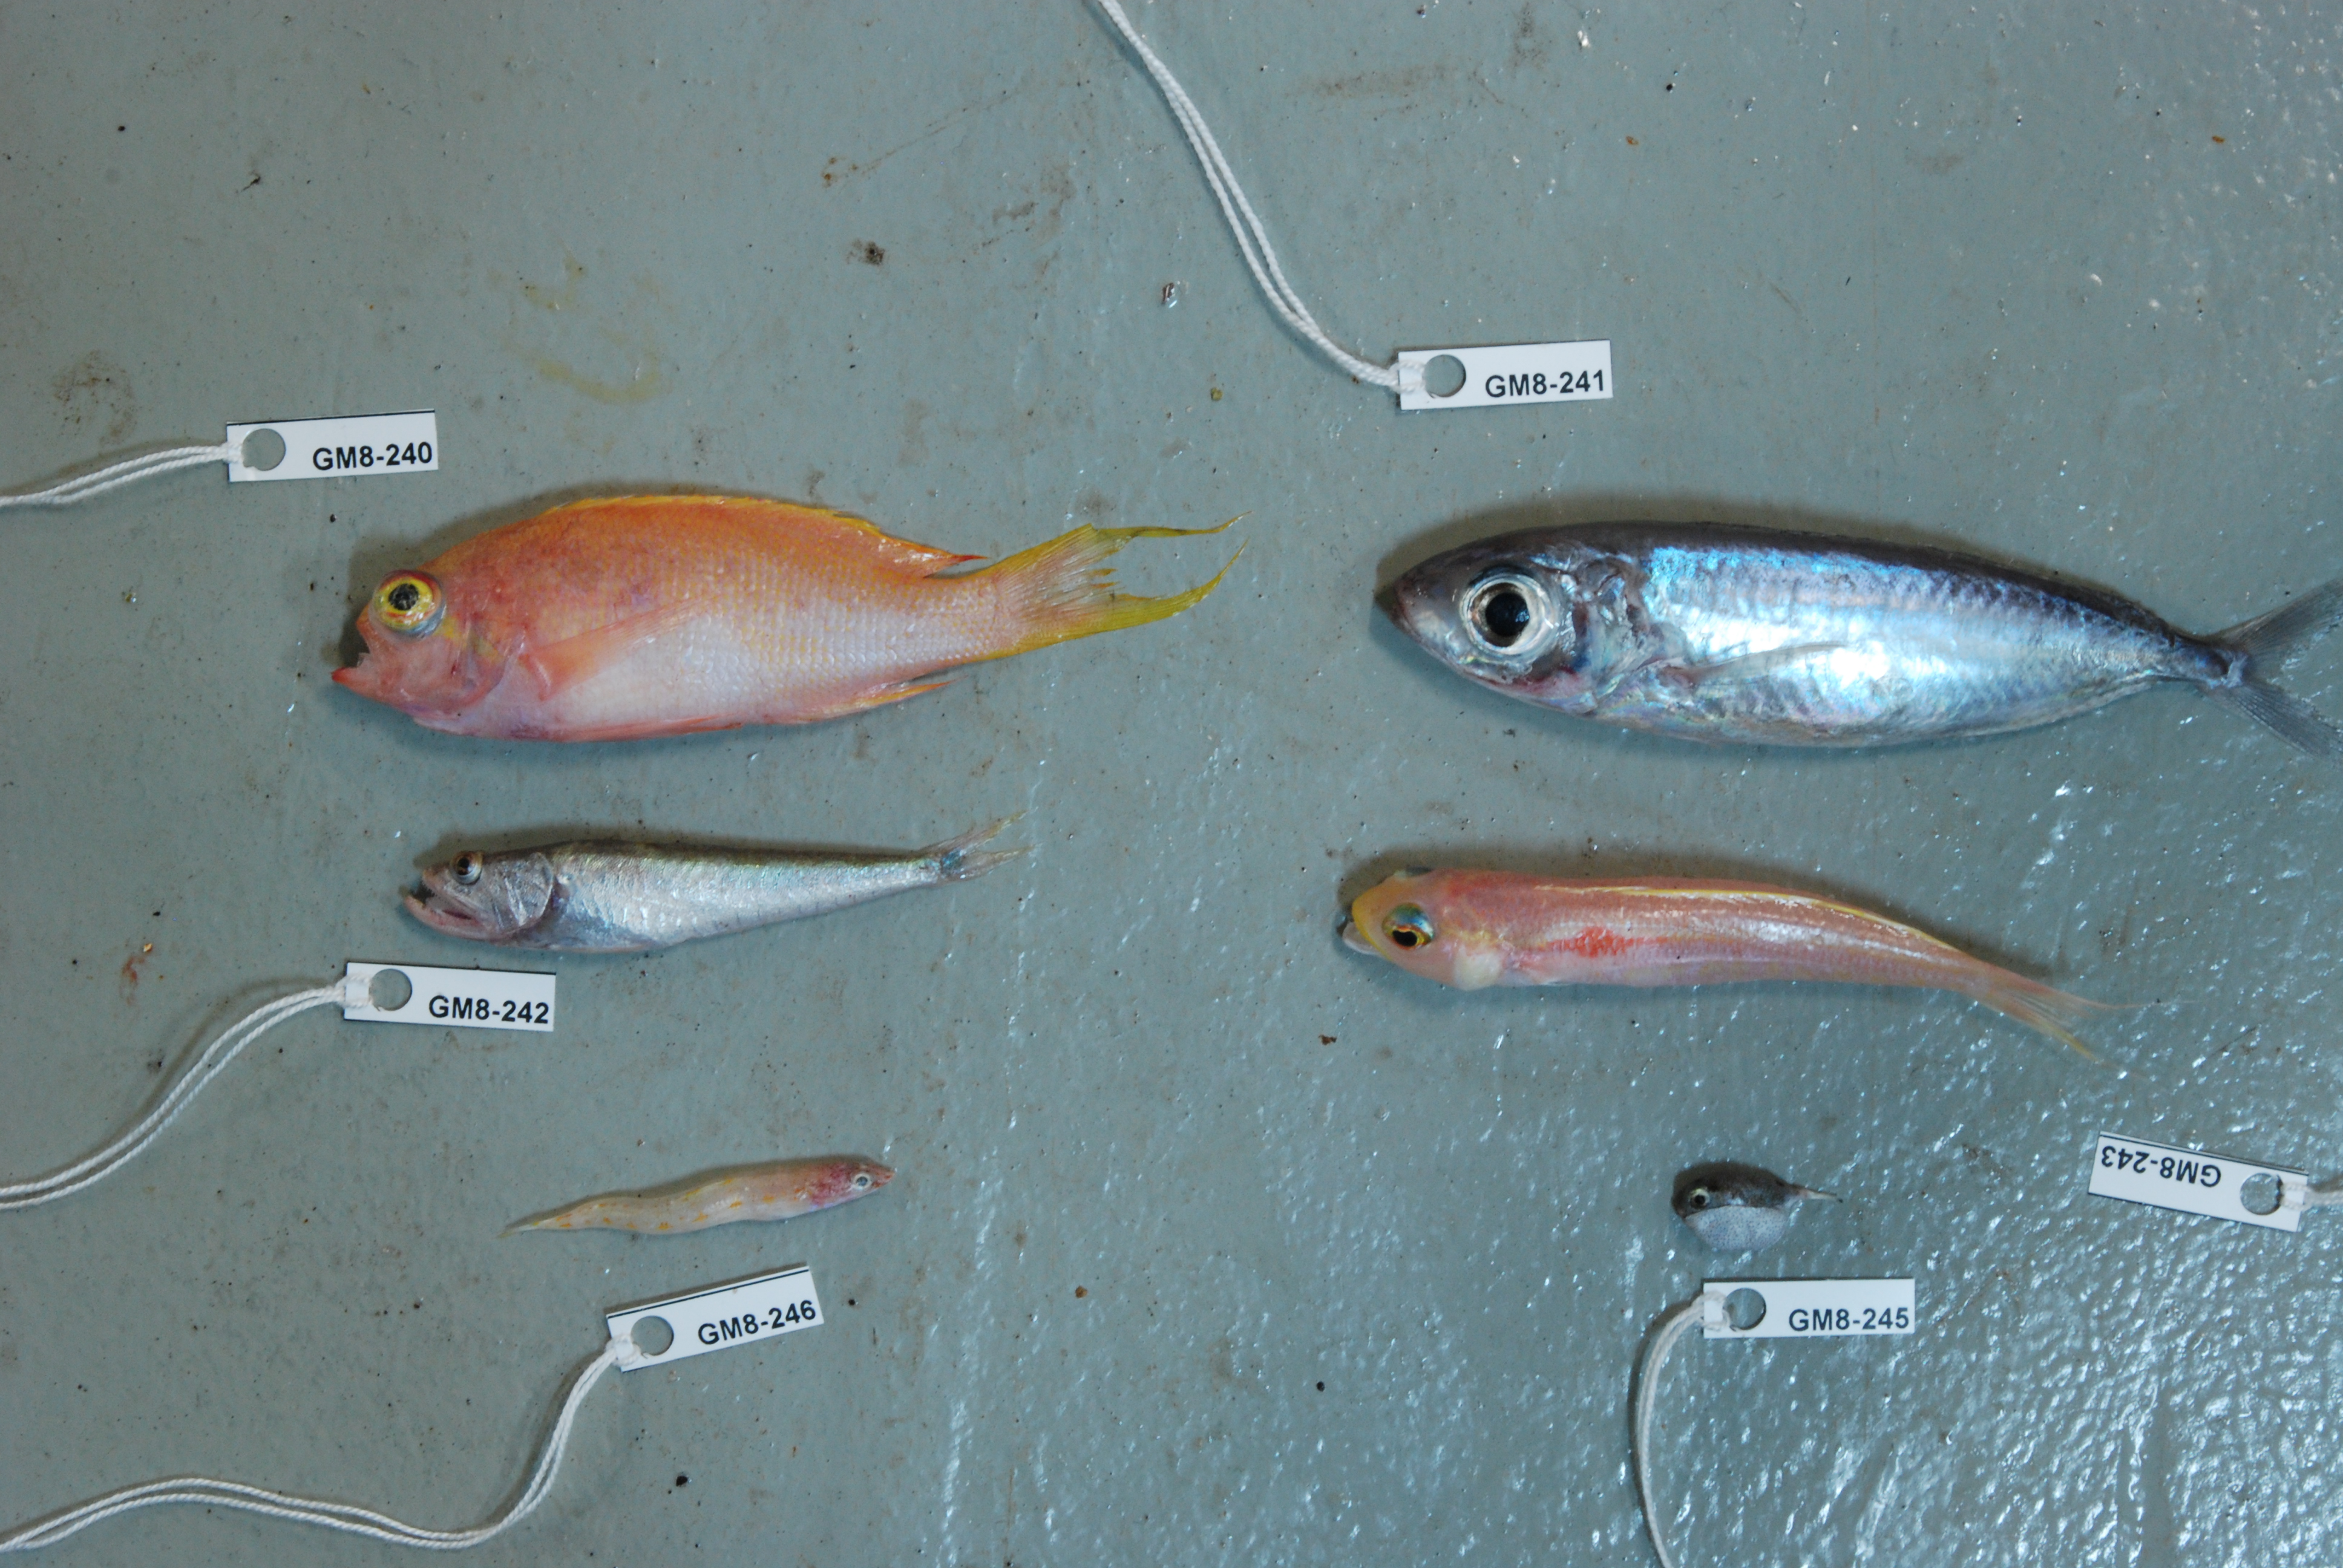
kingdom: Animalia
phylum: Chordata
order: Perciformes
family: Pinguipedidae
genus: Parapercis
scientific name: Parapercis
